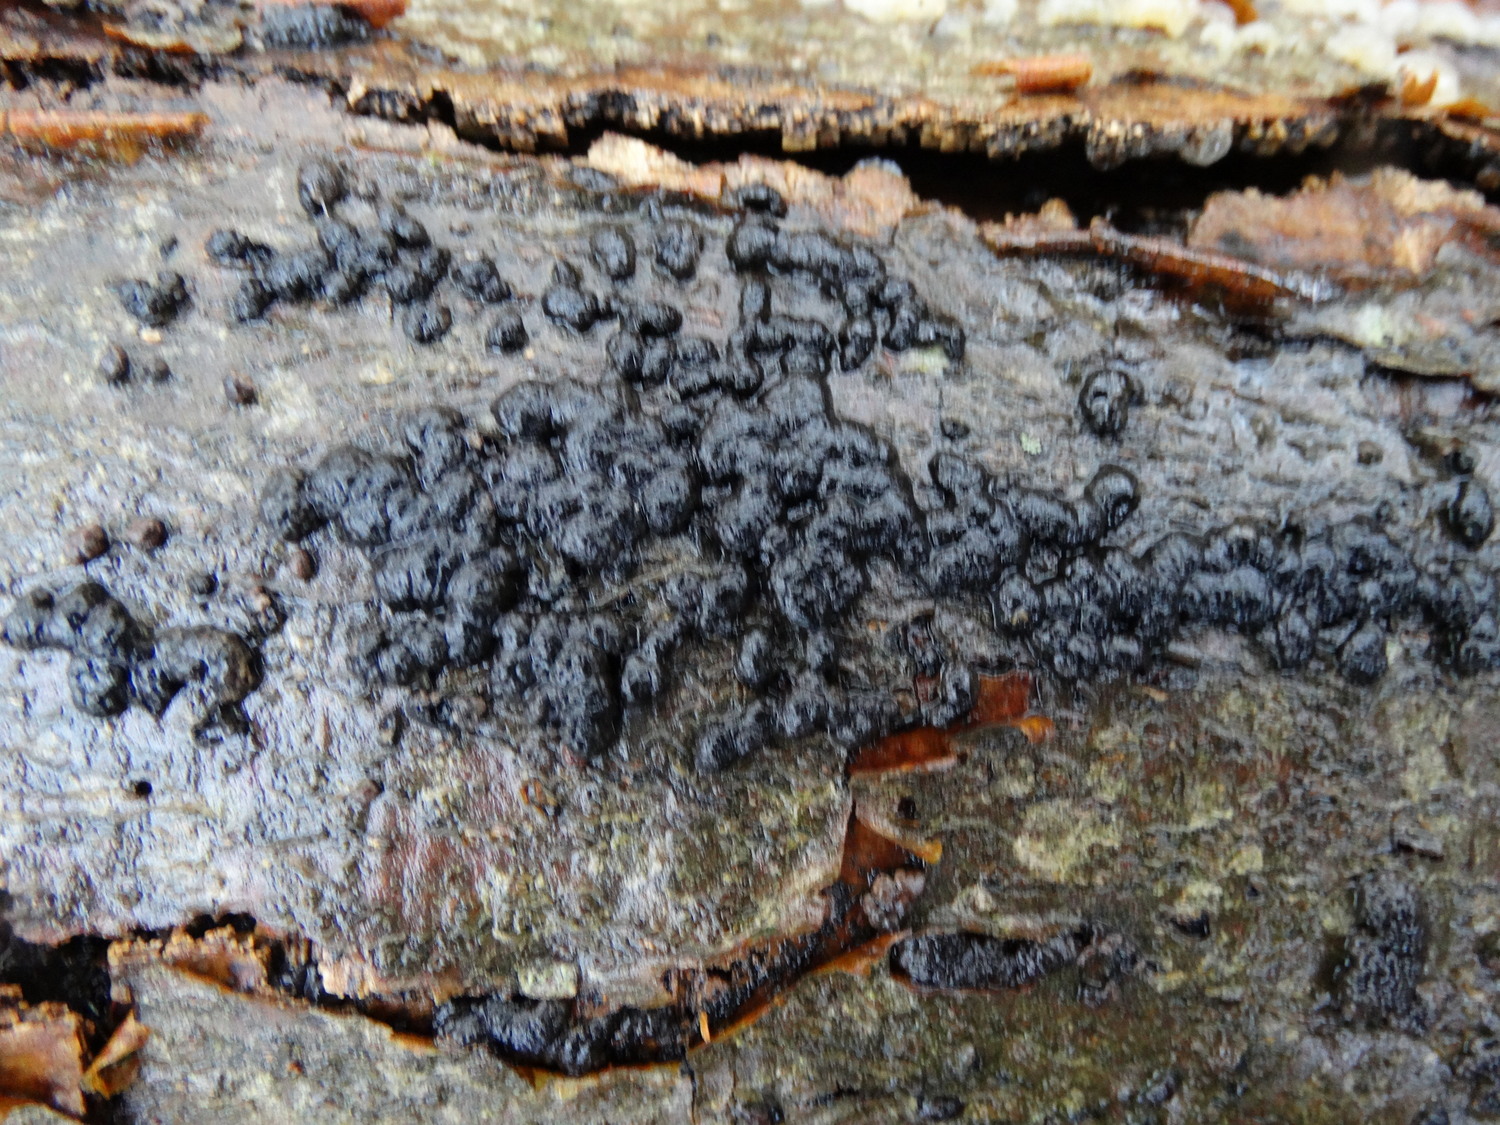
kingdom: Fungi
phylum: Ascomycota
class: Sordariomycetes
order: Xylariales
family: Hypoxylaceae
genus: Jackrogersella
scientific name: Jackrogersella cohaerens
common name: sammenflydende kulbær
